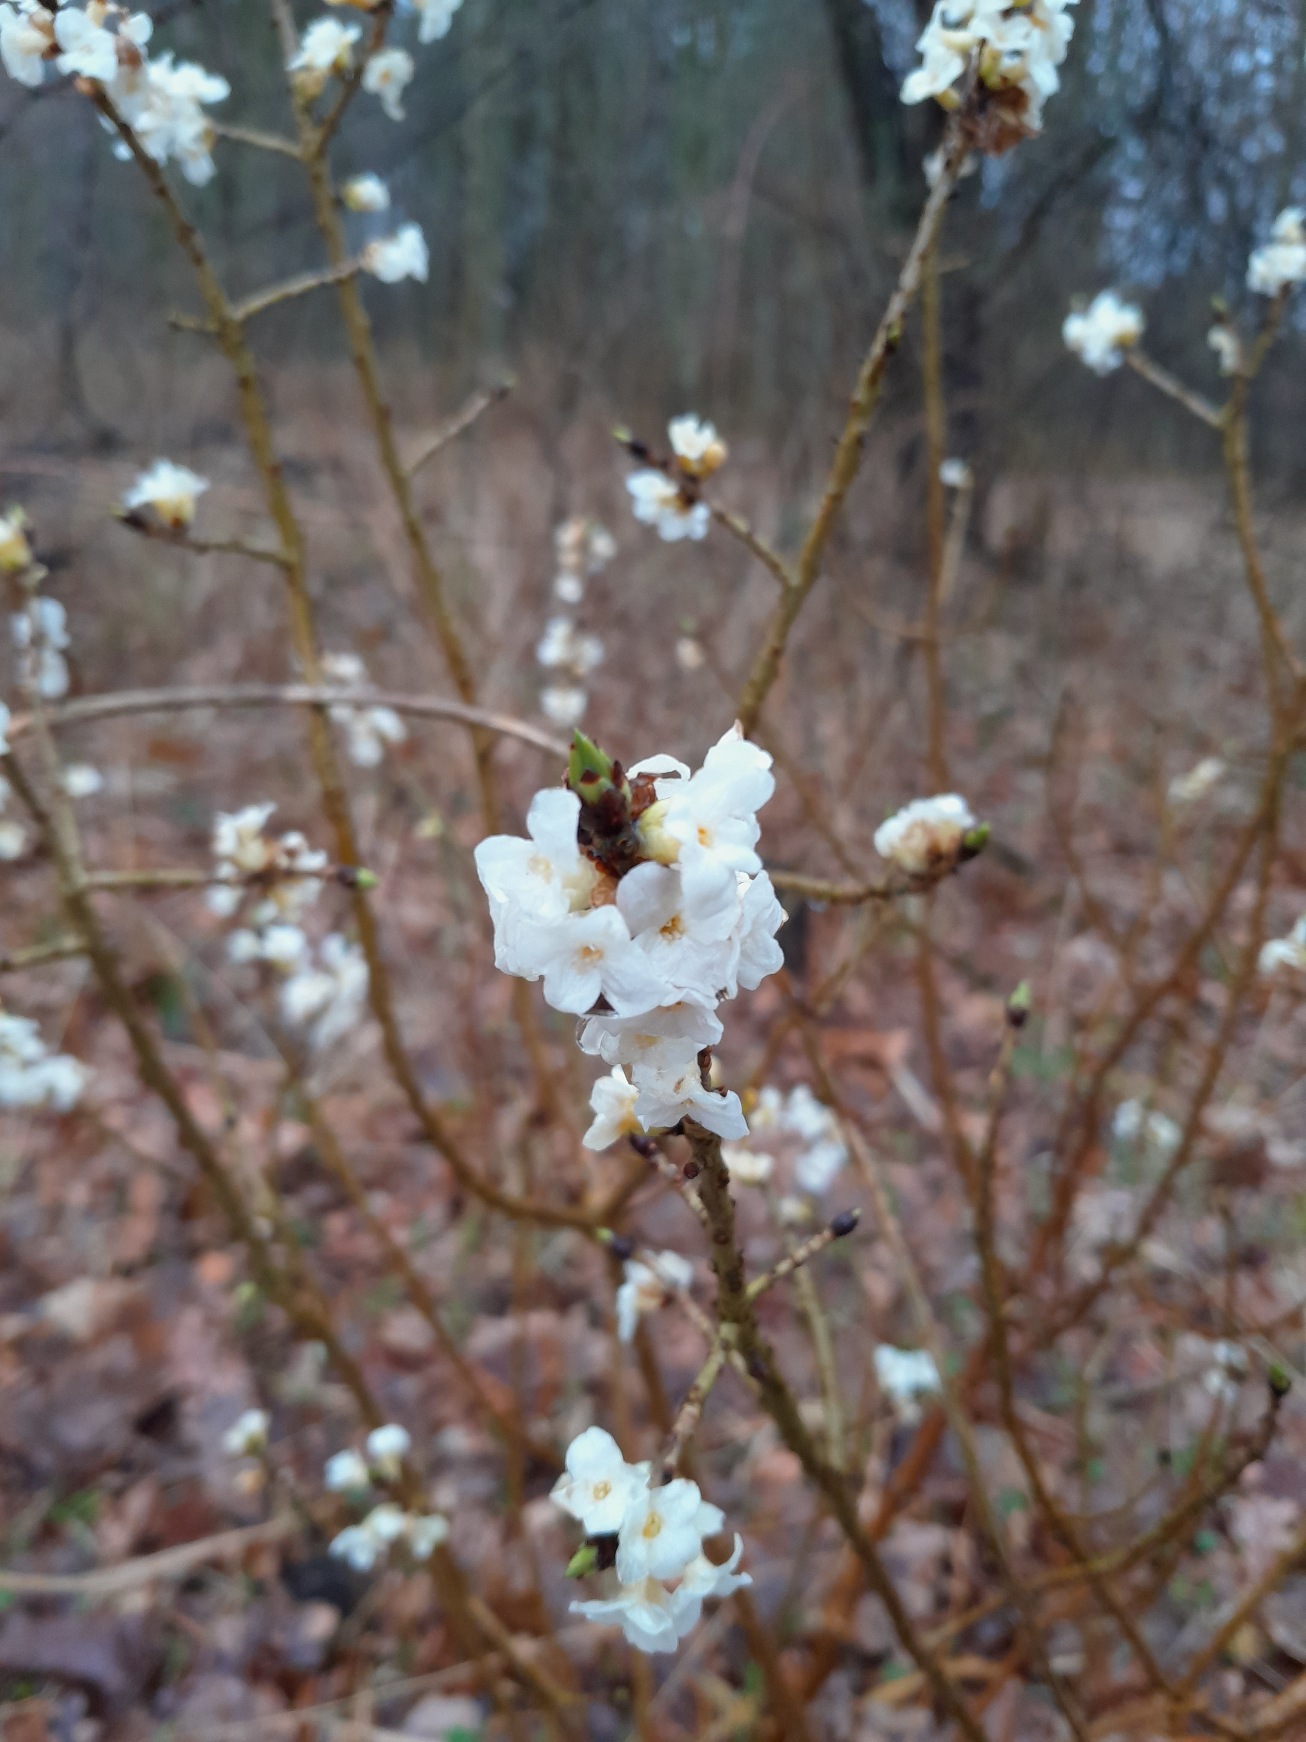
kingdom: Plantae
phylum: Tracheophyta
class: Magnoliopsida
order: Malvales
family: Thymelaeaceae
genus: Daphne
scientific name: Daphne mezereum
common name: Pebertræ
